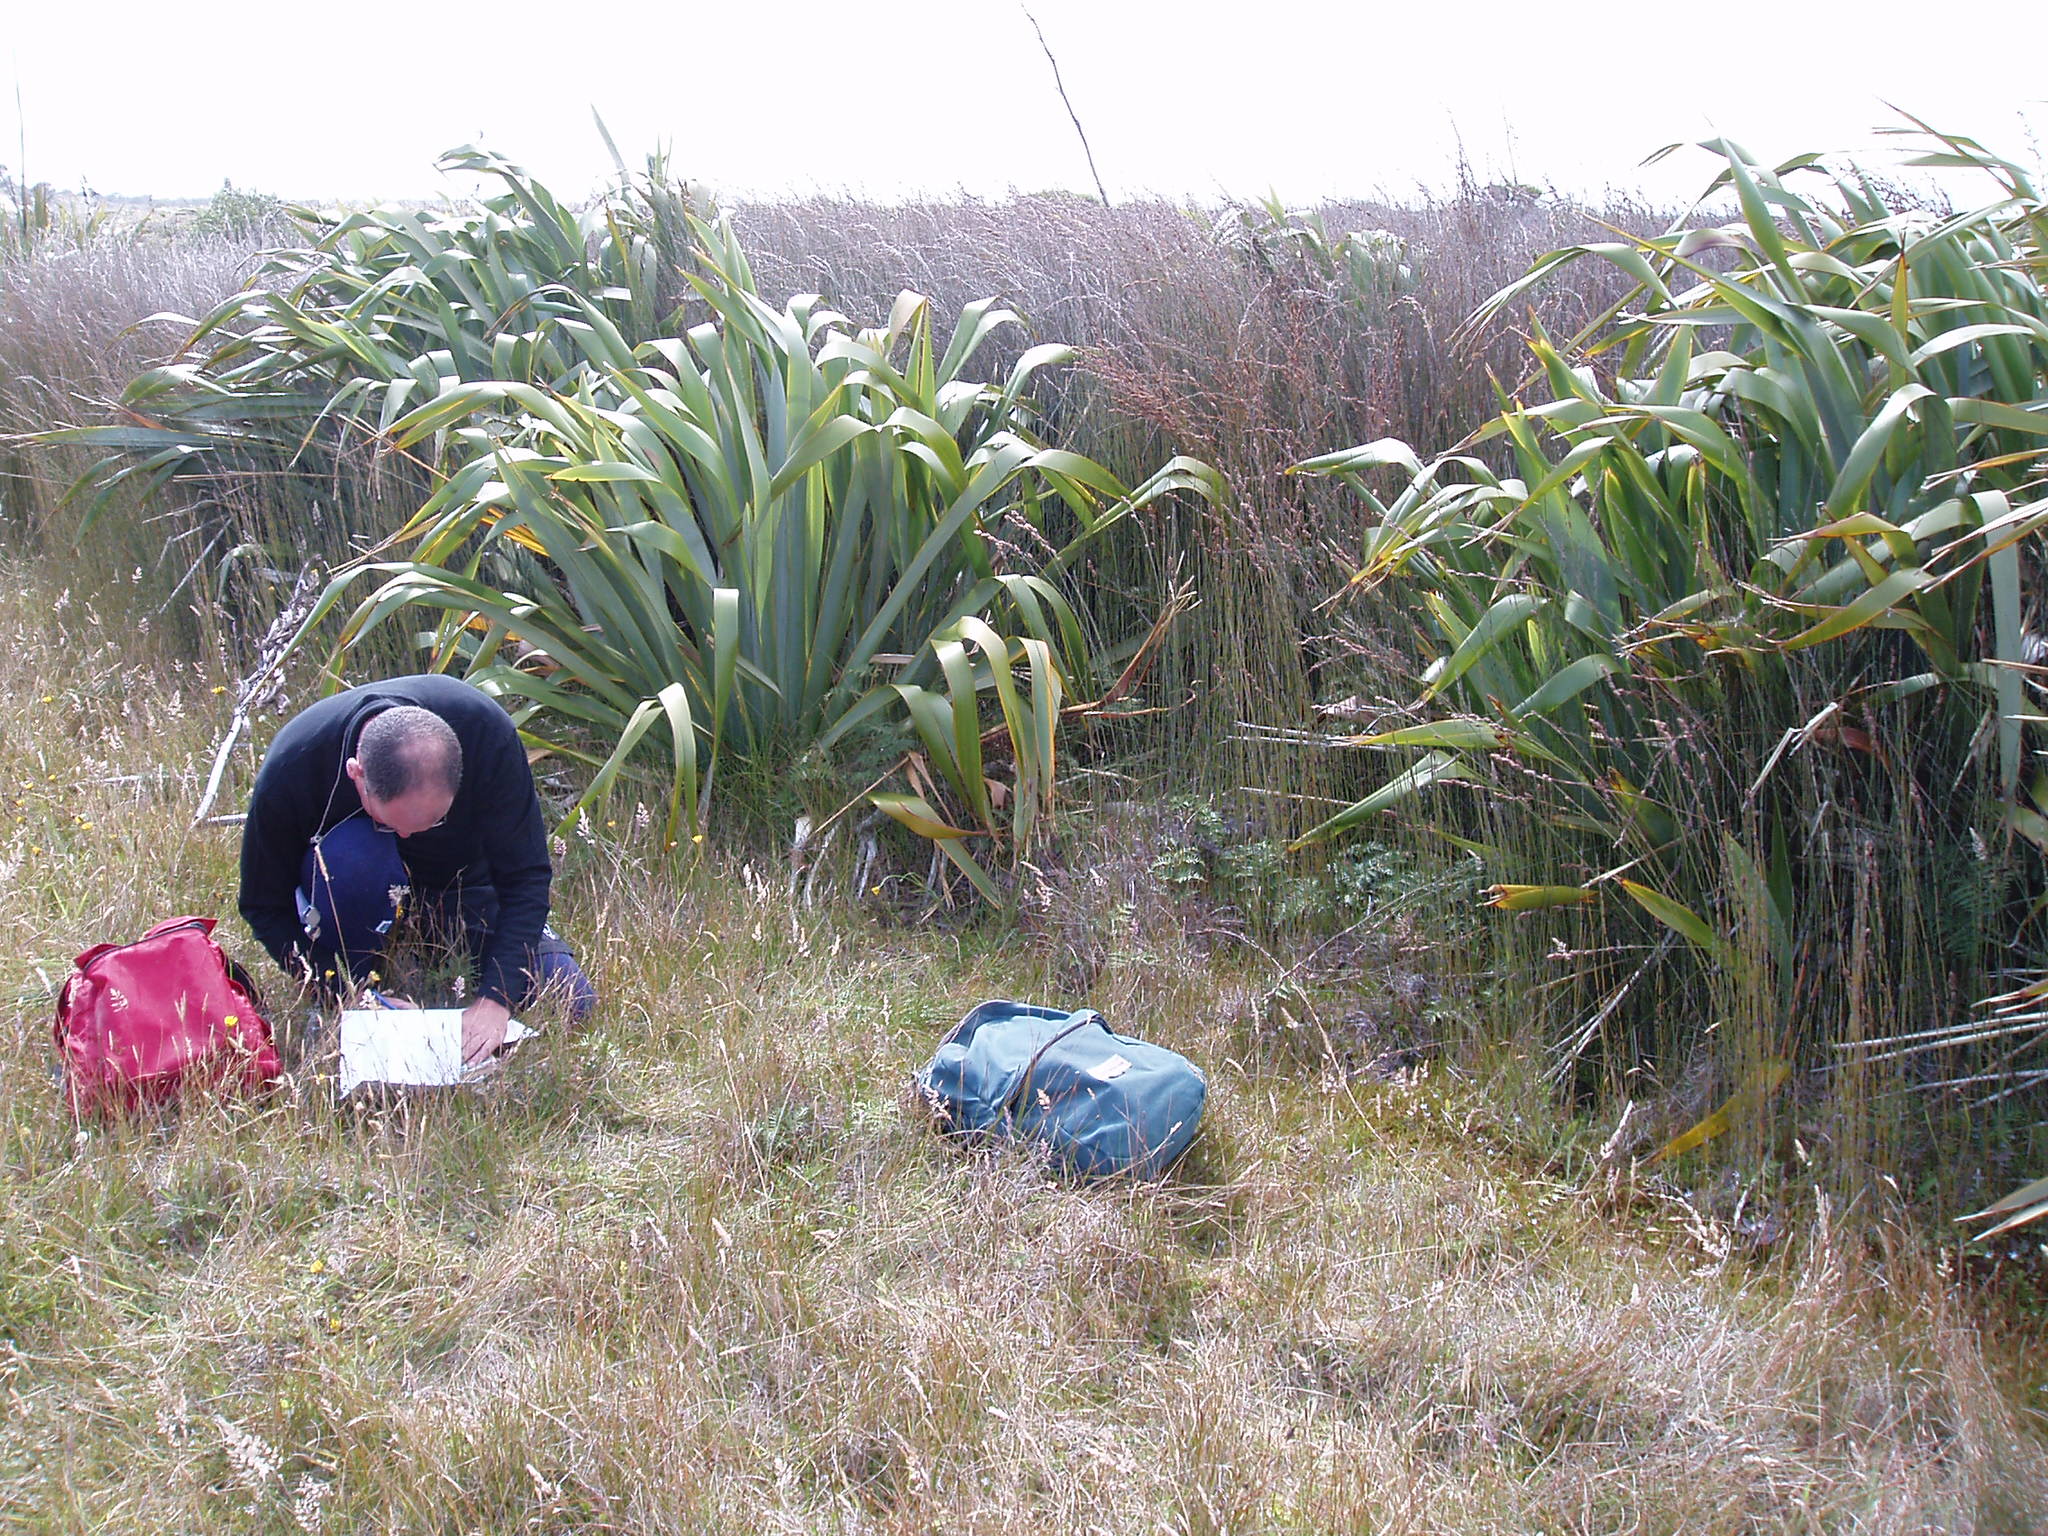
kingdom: Plantae
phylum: Tracheophyta
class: Liliopsida
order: Poales
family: Restionaceae
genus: Apodasmia
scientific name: Apodasmia similis
